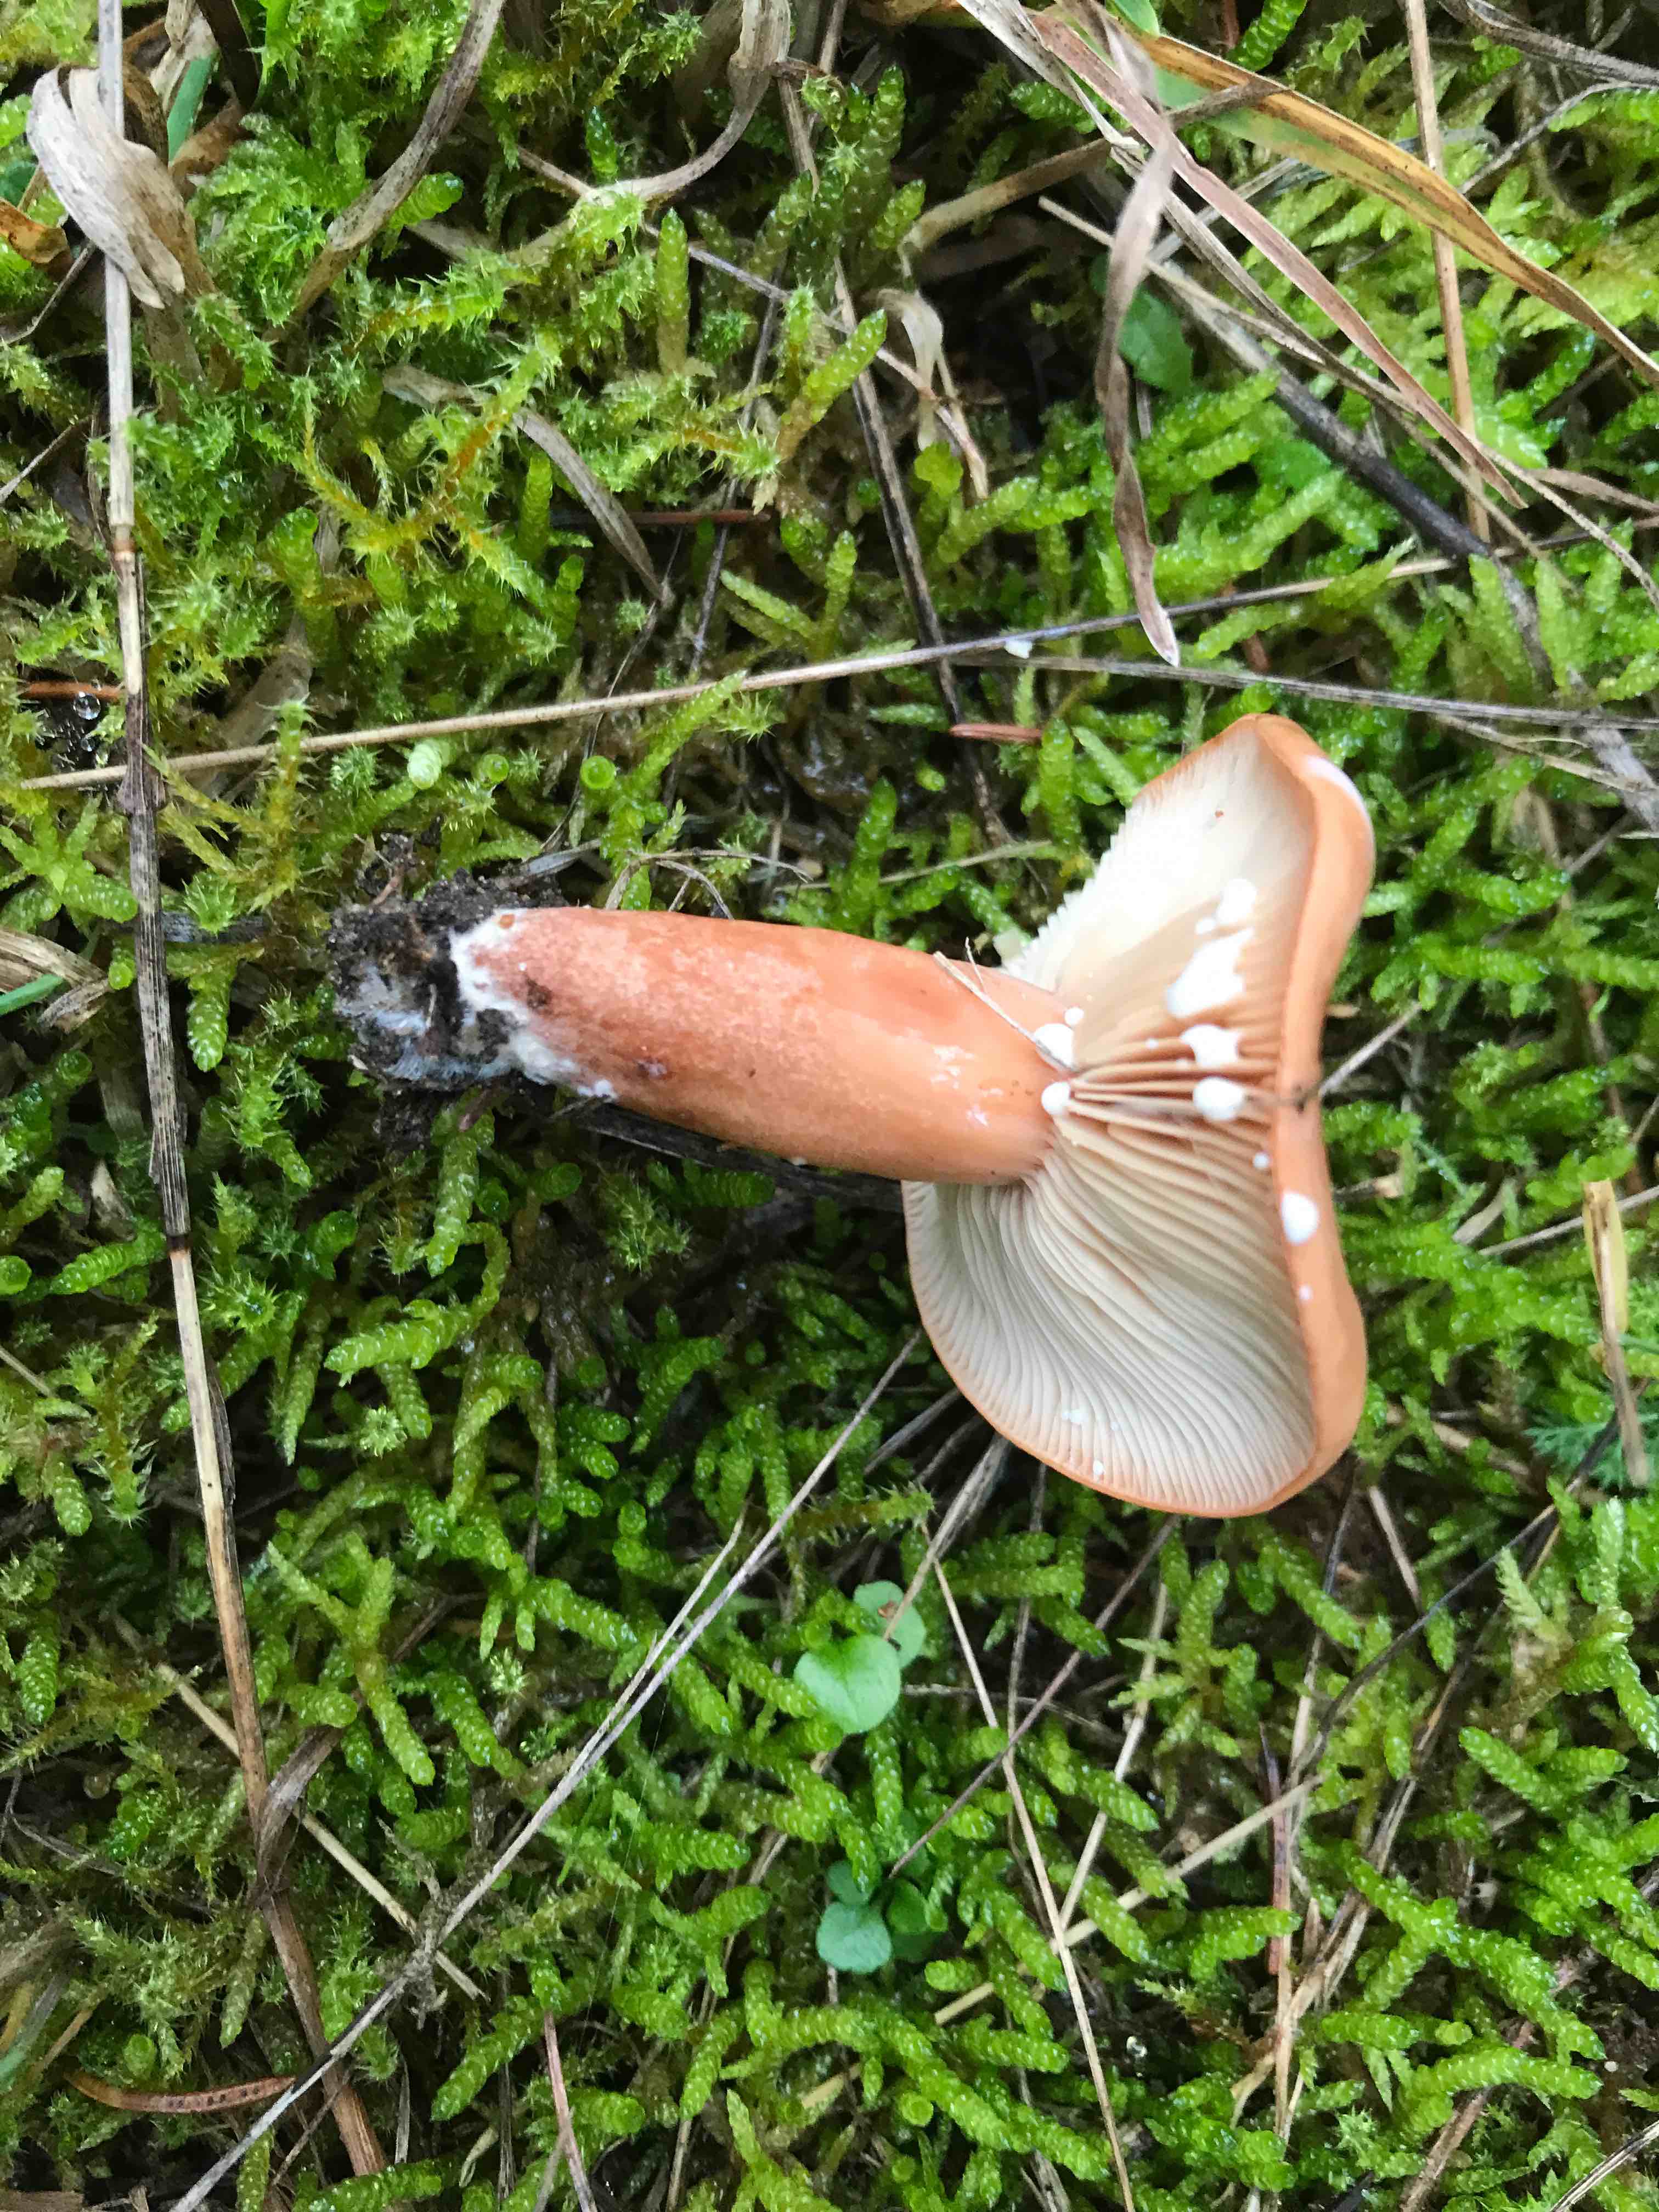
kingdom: Fungi
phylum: Basidiomycota
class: Agaricomycetes
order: Russulales
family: Russulaceae
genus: Lactarius
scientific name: Lactarius
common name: mælkehat
